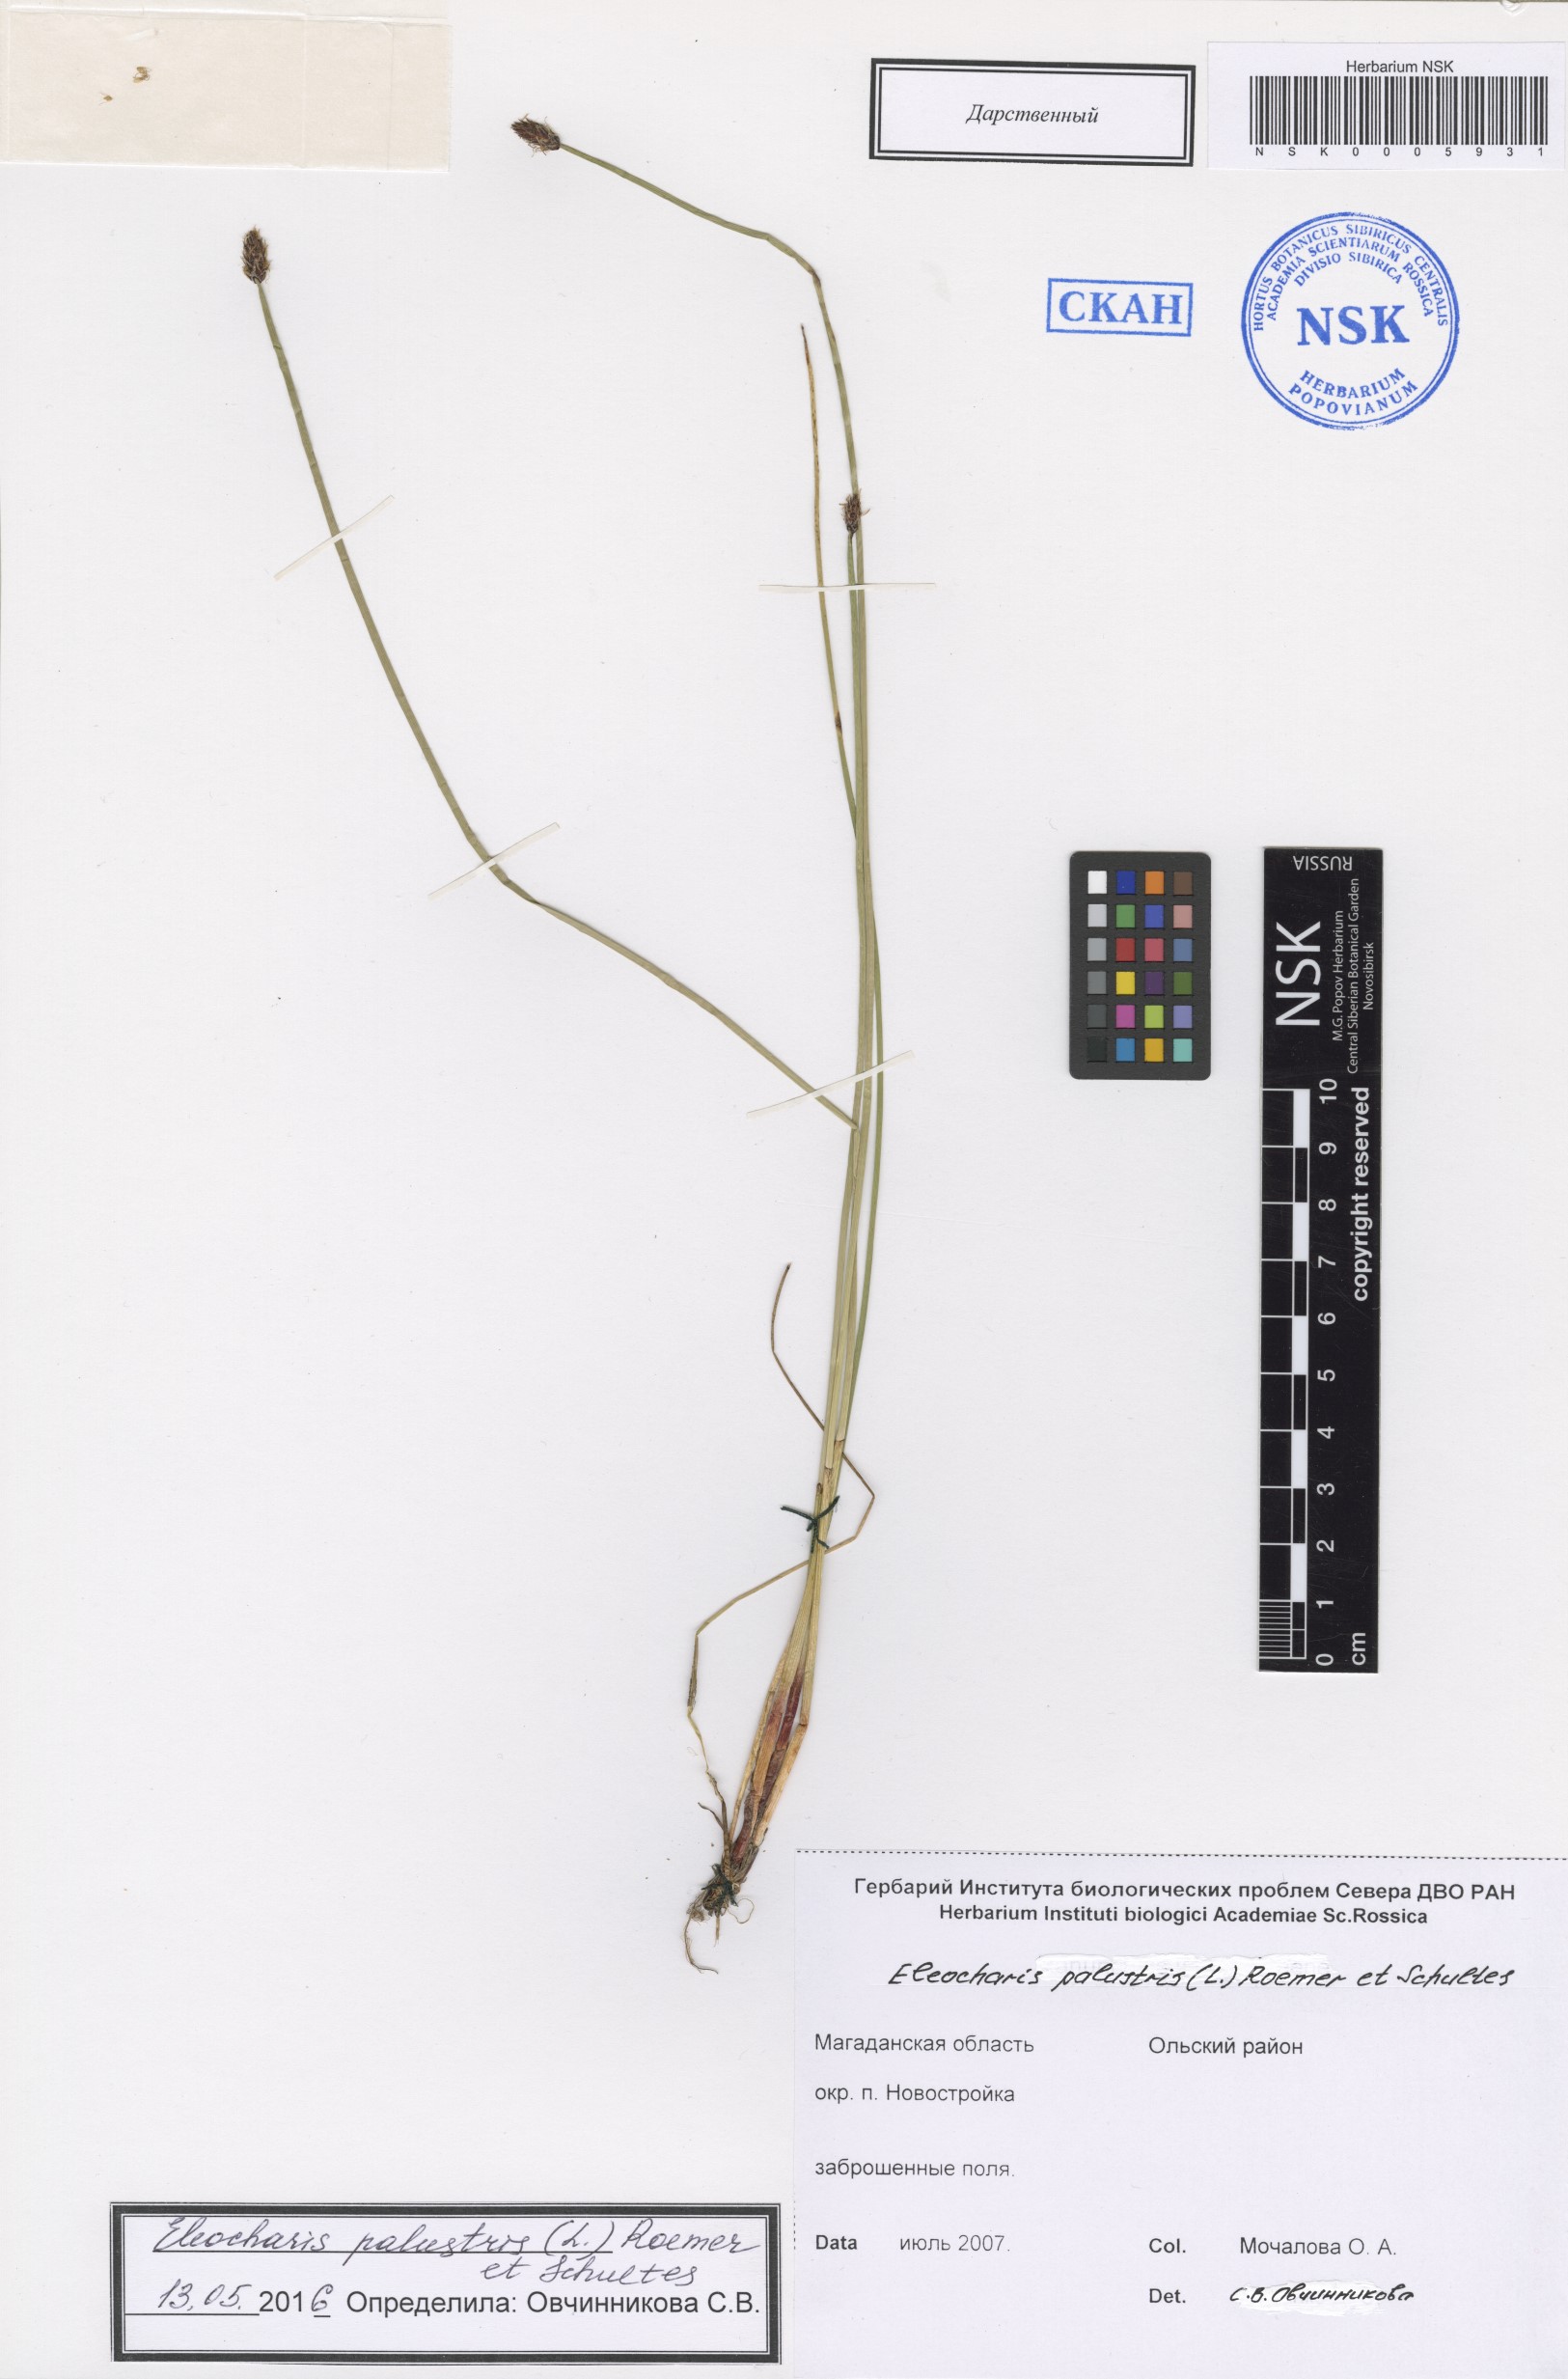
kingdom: Plantae
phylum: Tracheophyta
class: Liliopsida
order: Poales
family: Cyperaceae
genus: Eleocharis
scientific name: Eleocharis palustris
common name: Common spike-rush
